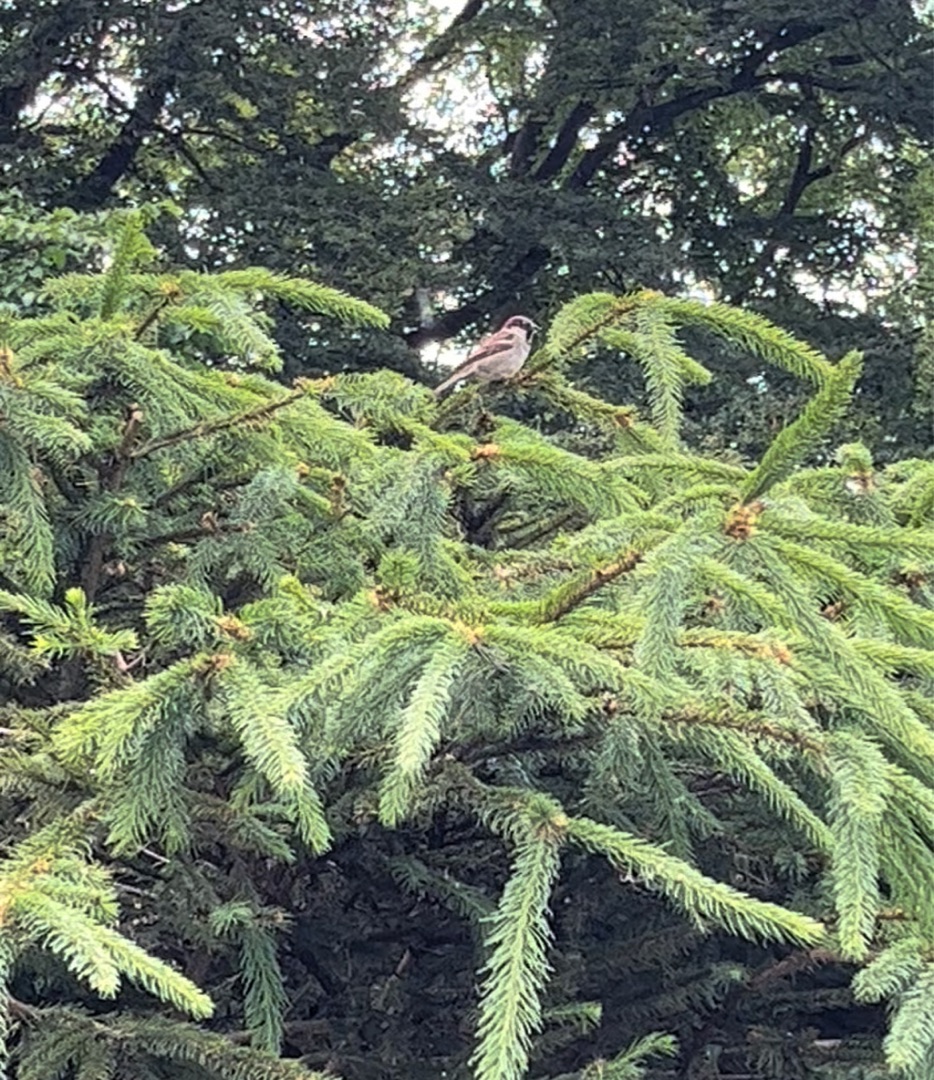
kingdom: Animalia
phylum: Chordata
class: Aves
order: Passeriformes
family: Passeridae
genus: Passer
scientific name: Passer domesticus
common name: Gråspurv
